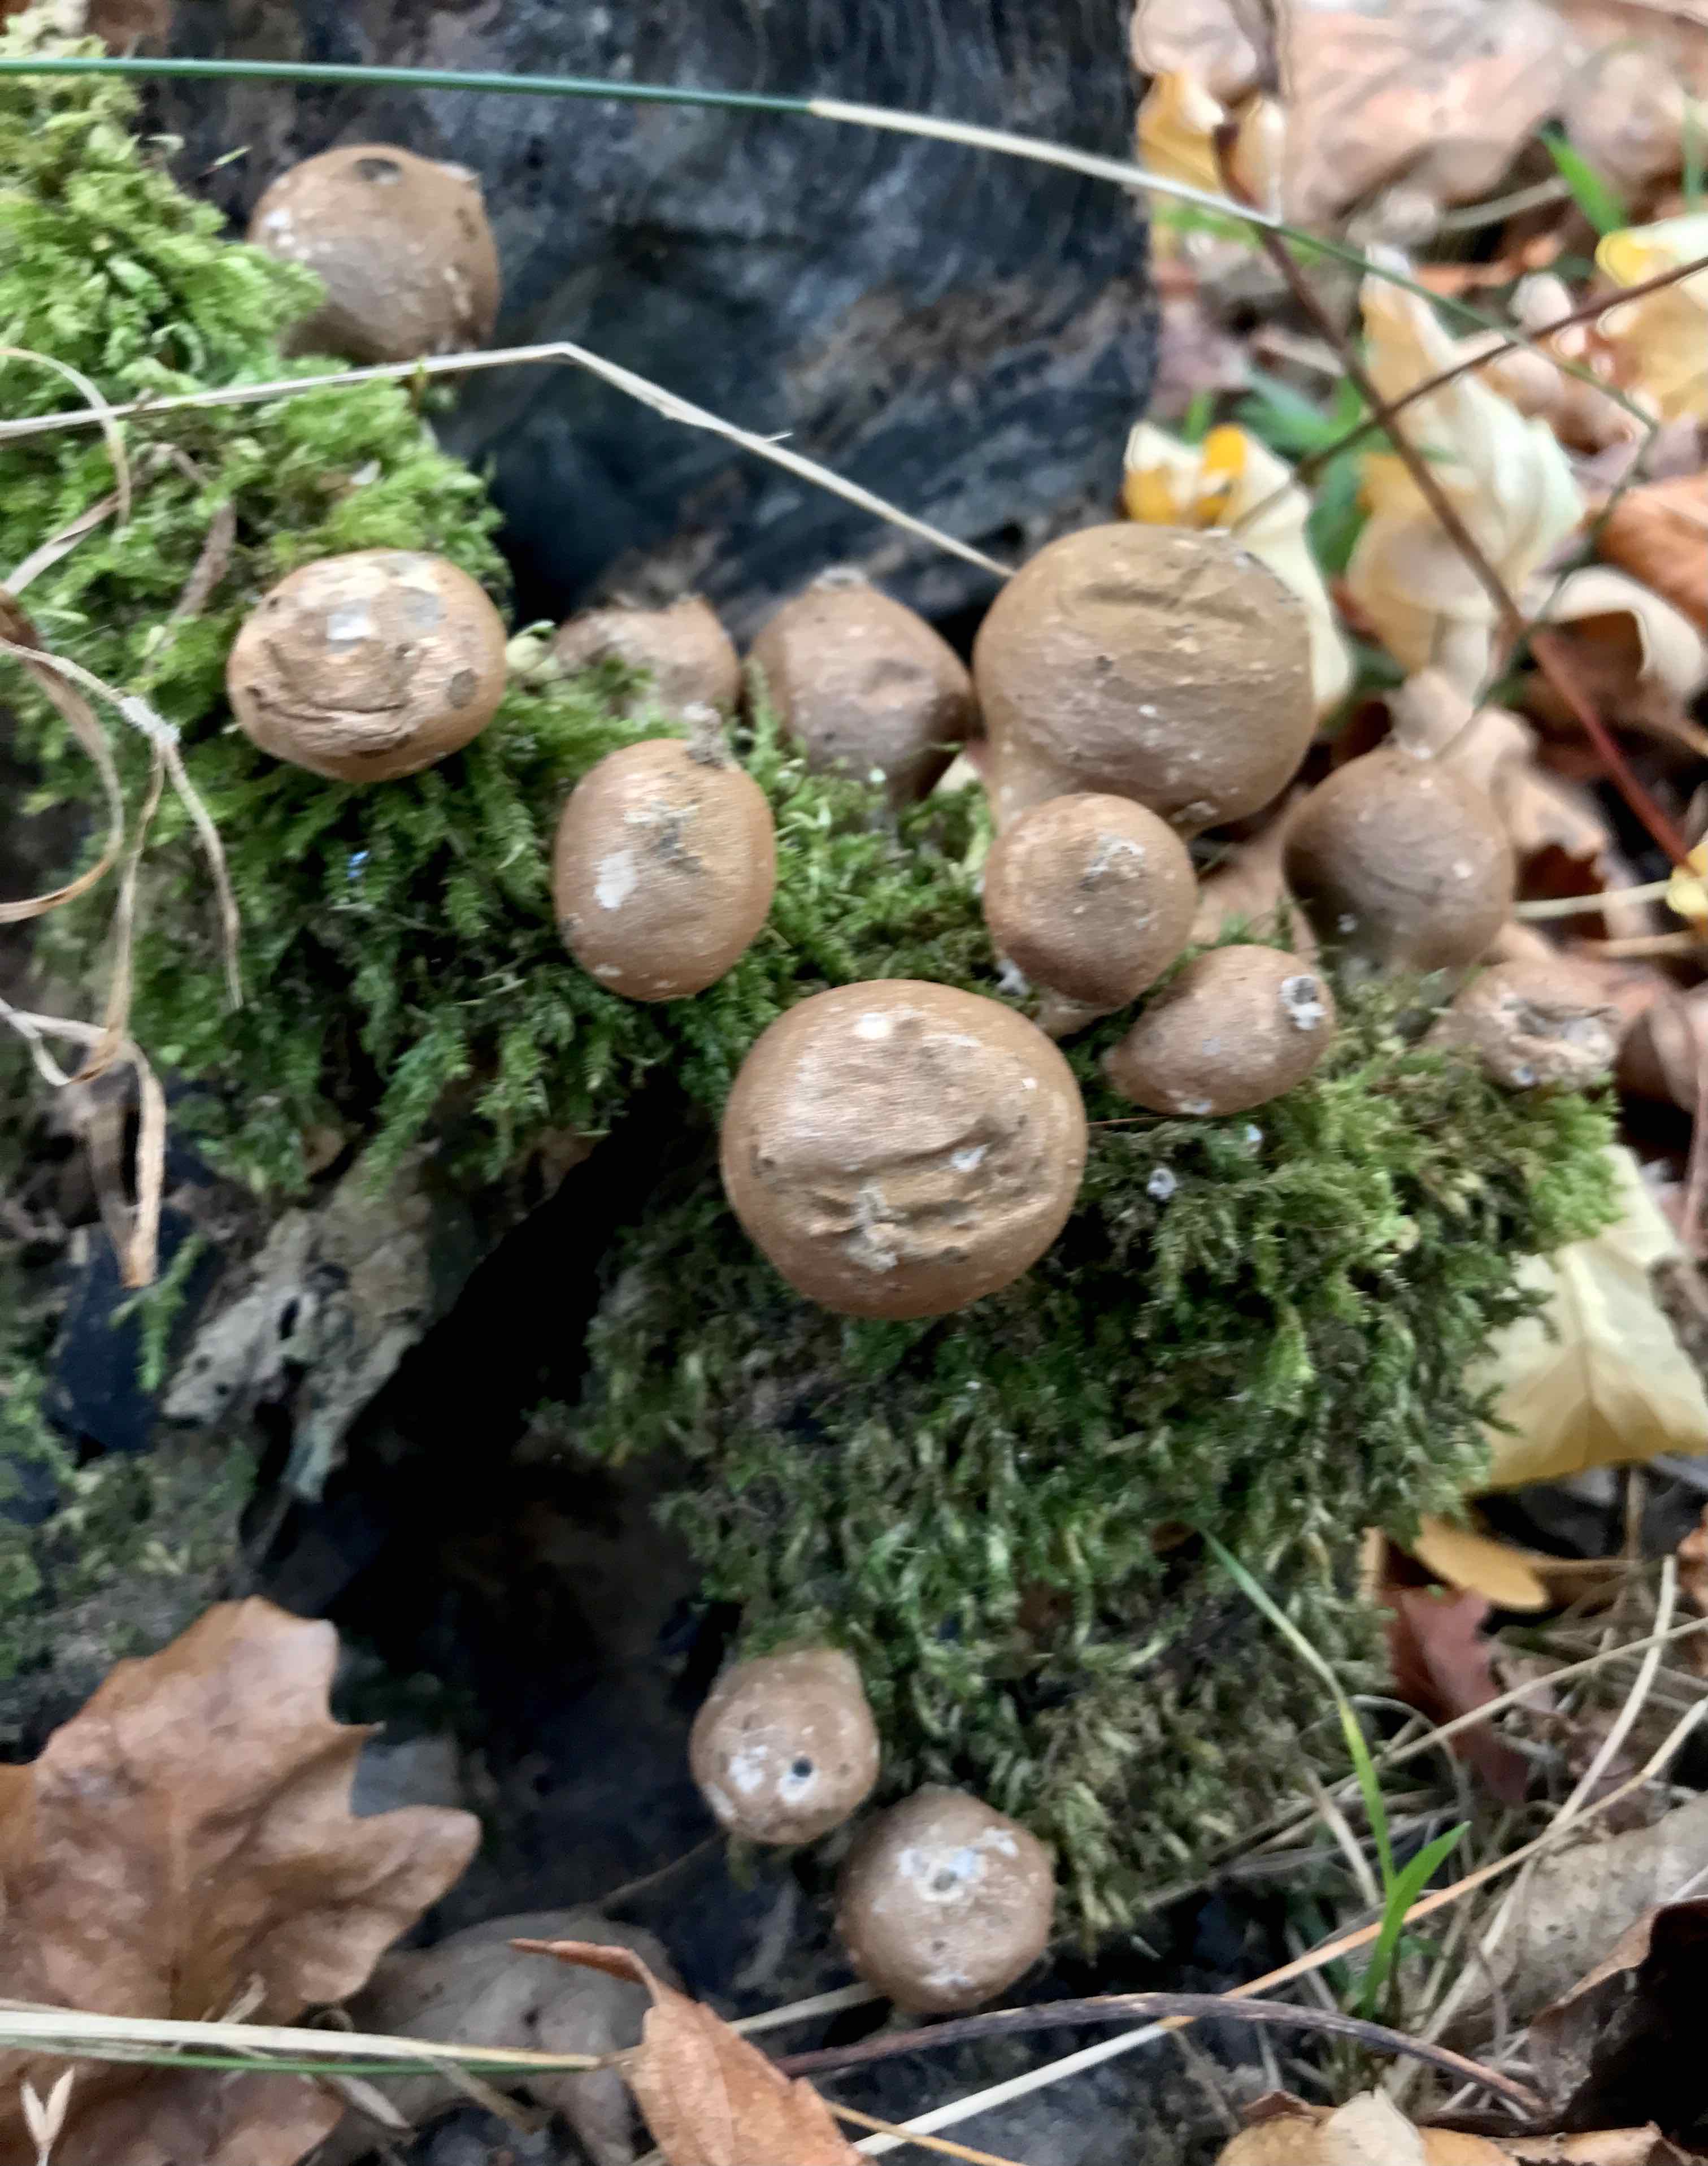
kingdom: Fungi
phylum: Basidiomycota
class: Agaricomycetes
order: Agaricales
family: Lycoperdaceae
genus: Apioperdon
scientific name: Apioperdon pyriforme
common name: pære-støvbold
